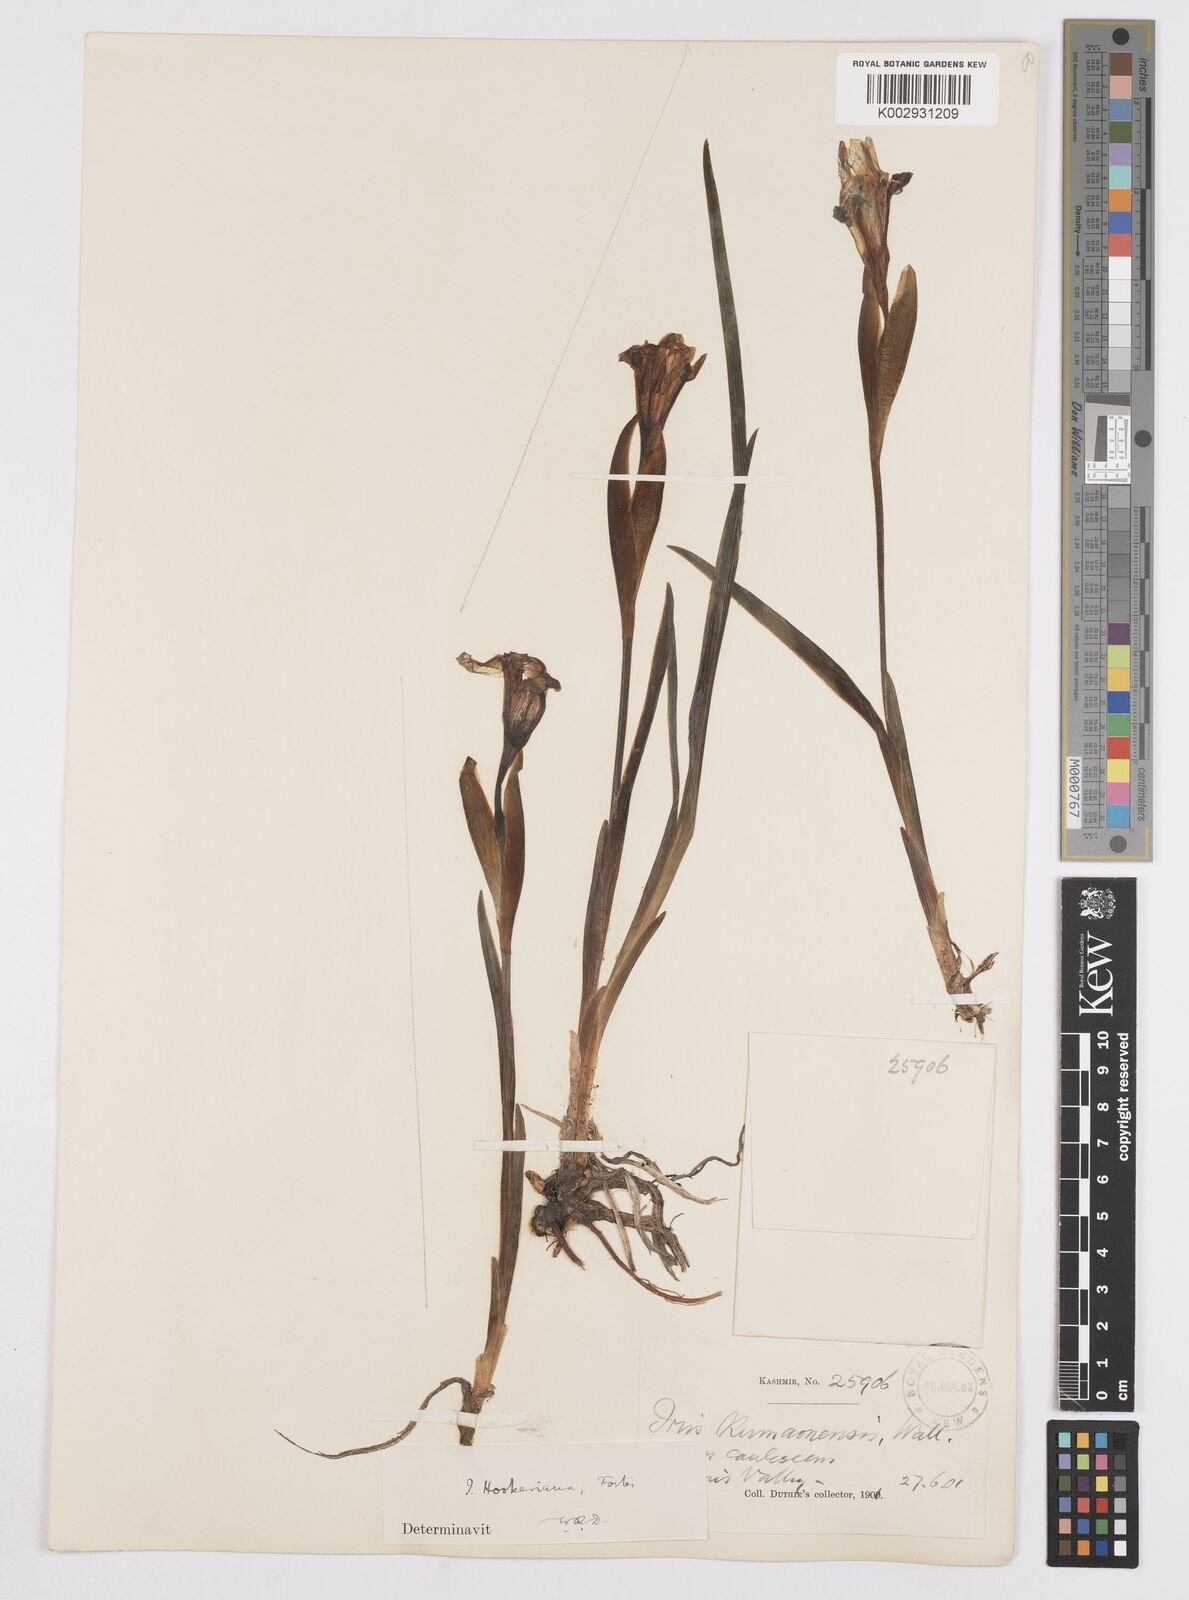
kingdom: Plantae
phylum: Tracheophyta
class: Liliopsida
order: Asparagales
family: Iridaceae
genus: Iris
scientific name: Iris hookeriana
